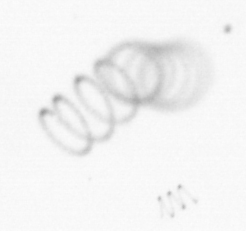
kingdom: Chromista
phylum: Ochrophyta
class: Bacillariophyceae
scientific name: Bacillariophyceae
